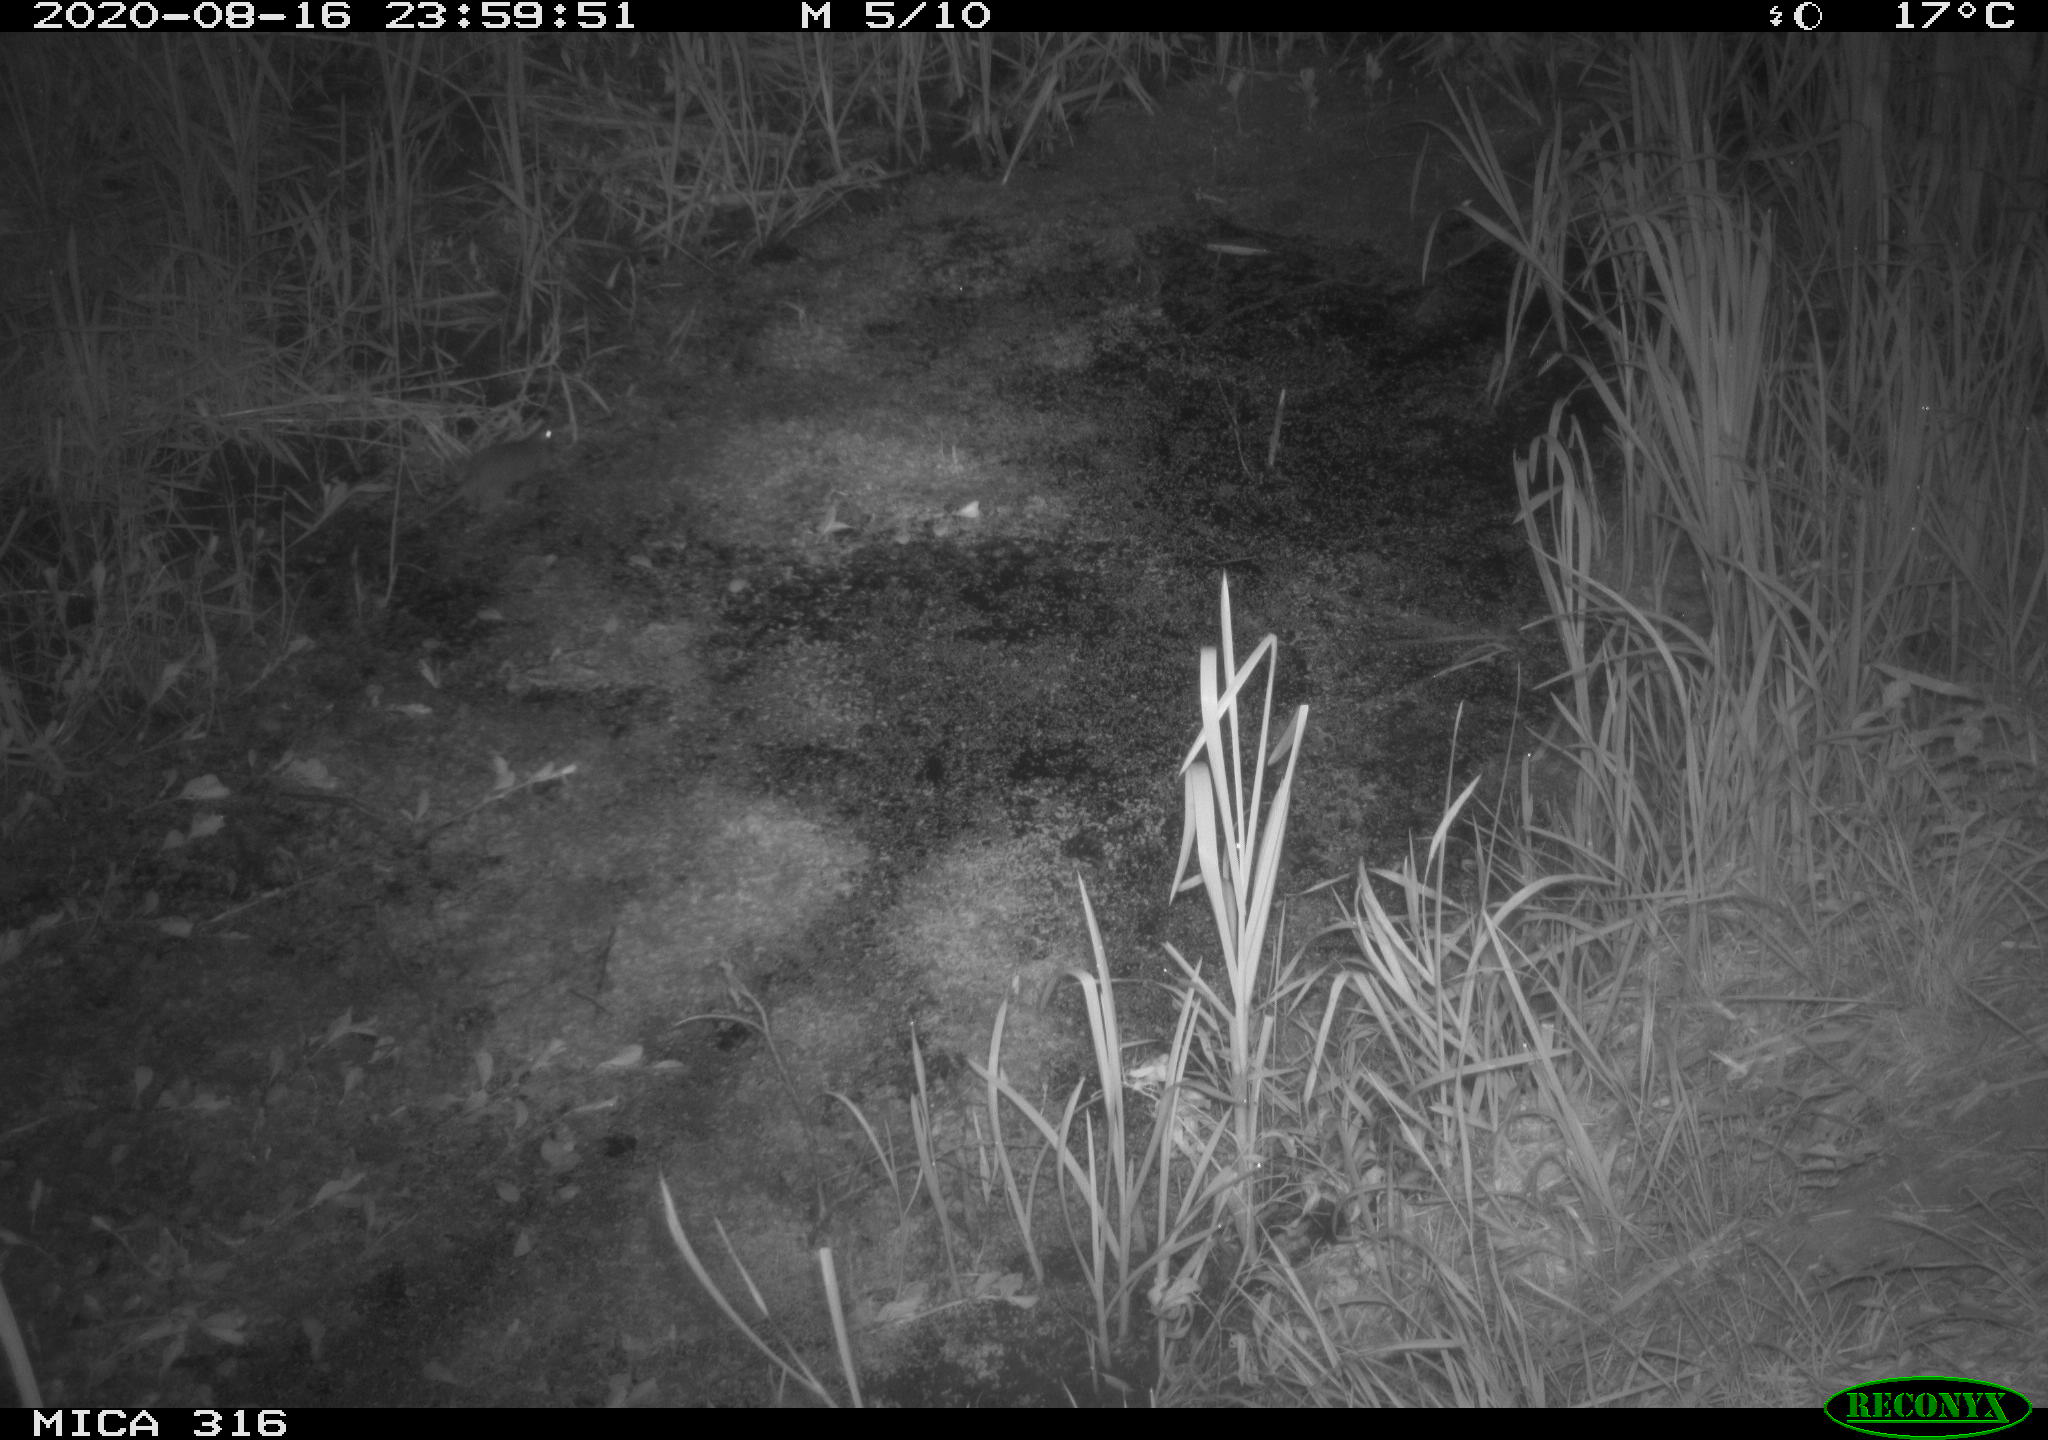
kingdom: Animalia
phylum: Chordata
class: Mammalia
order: Rodentia
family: Muridae
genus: Rattus
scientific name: Rattus norvegicus
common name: Brown rat
